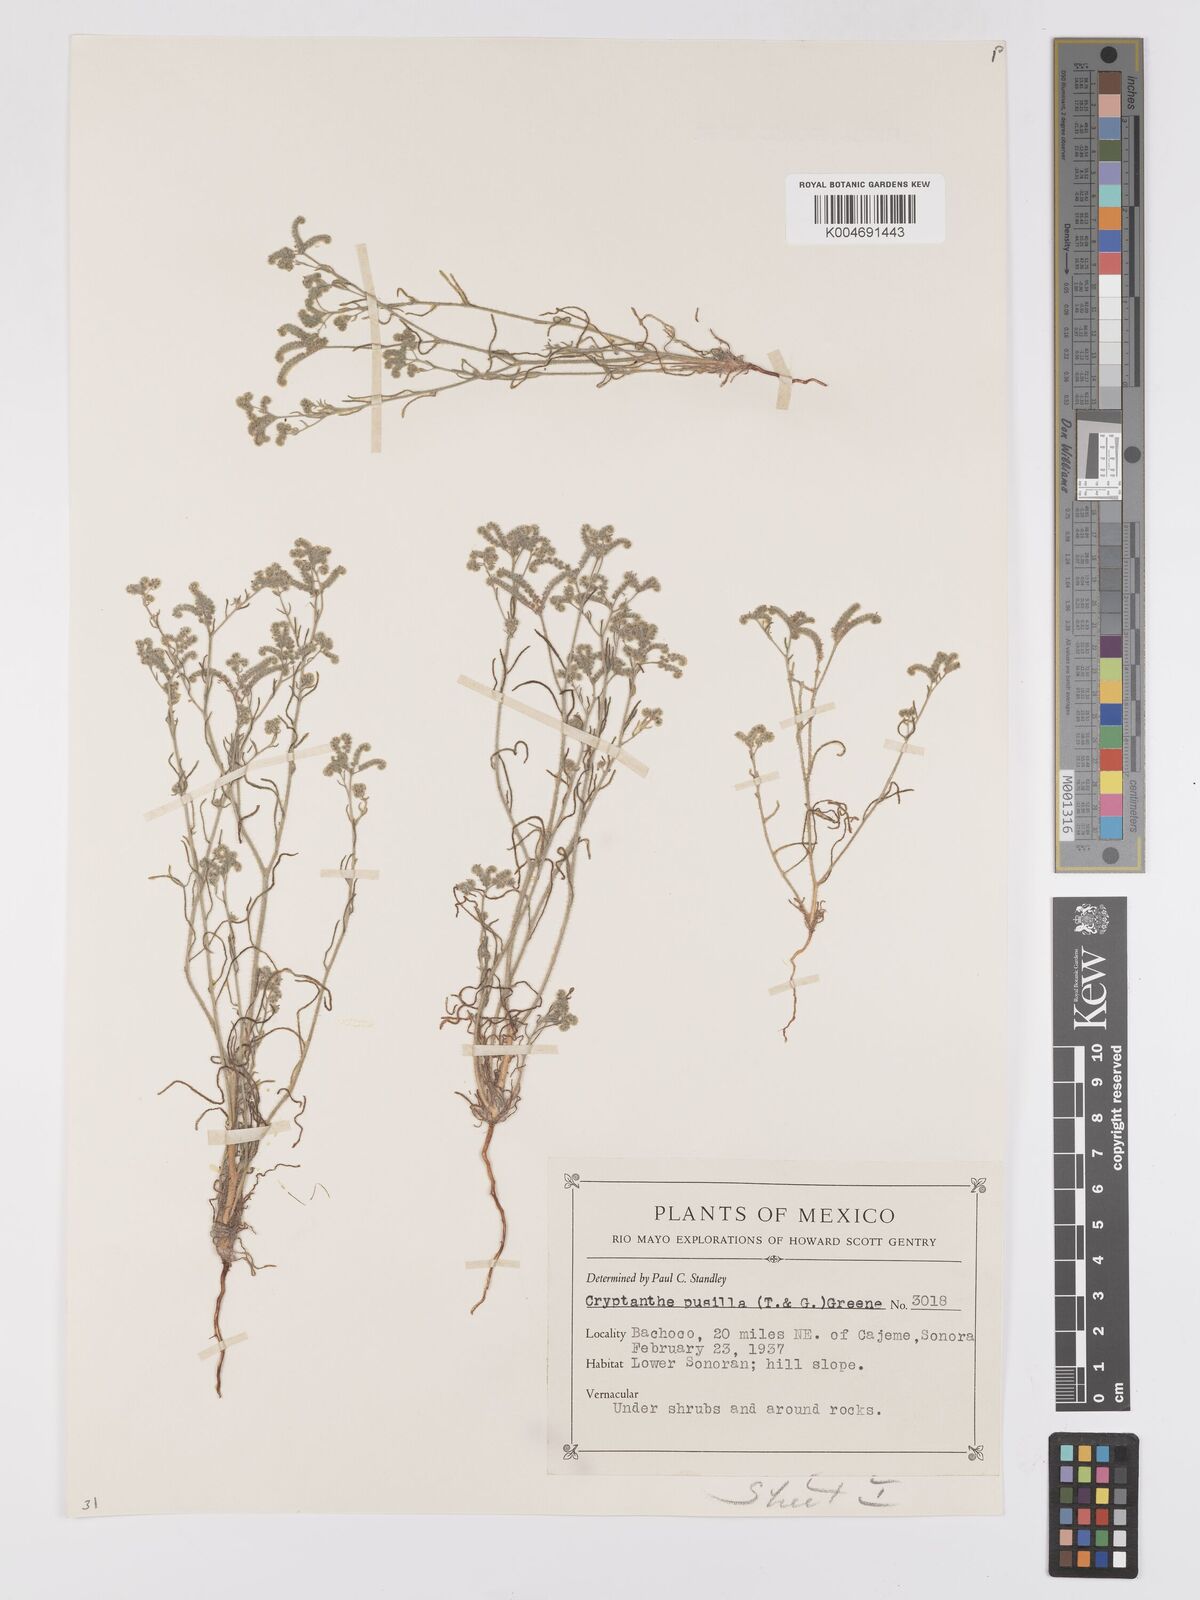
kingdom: Plantae
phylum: Tracheophyta
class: Magnoliopsida
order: Boraginales
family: Boraginaceae
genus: Johnstonella
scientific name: Johnstonella pusilla
